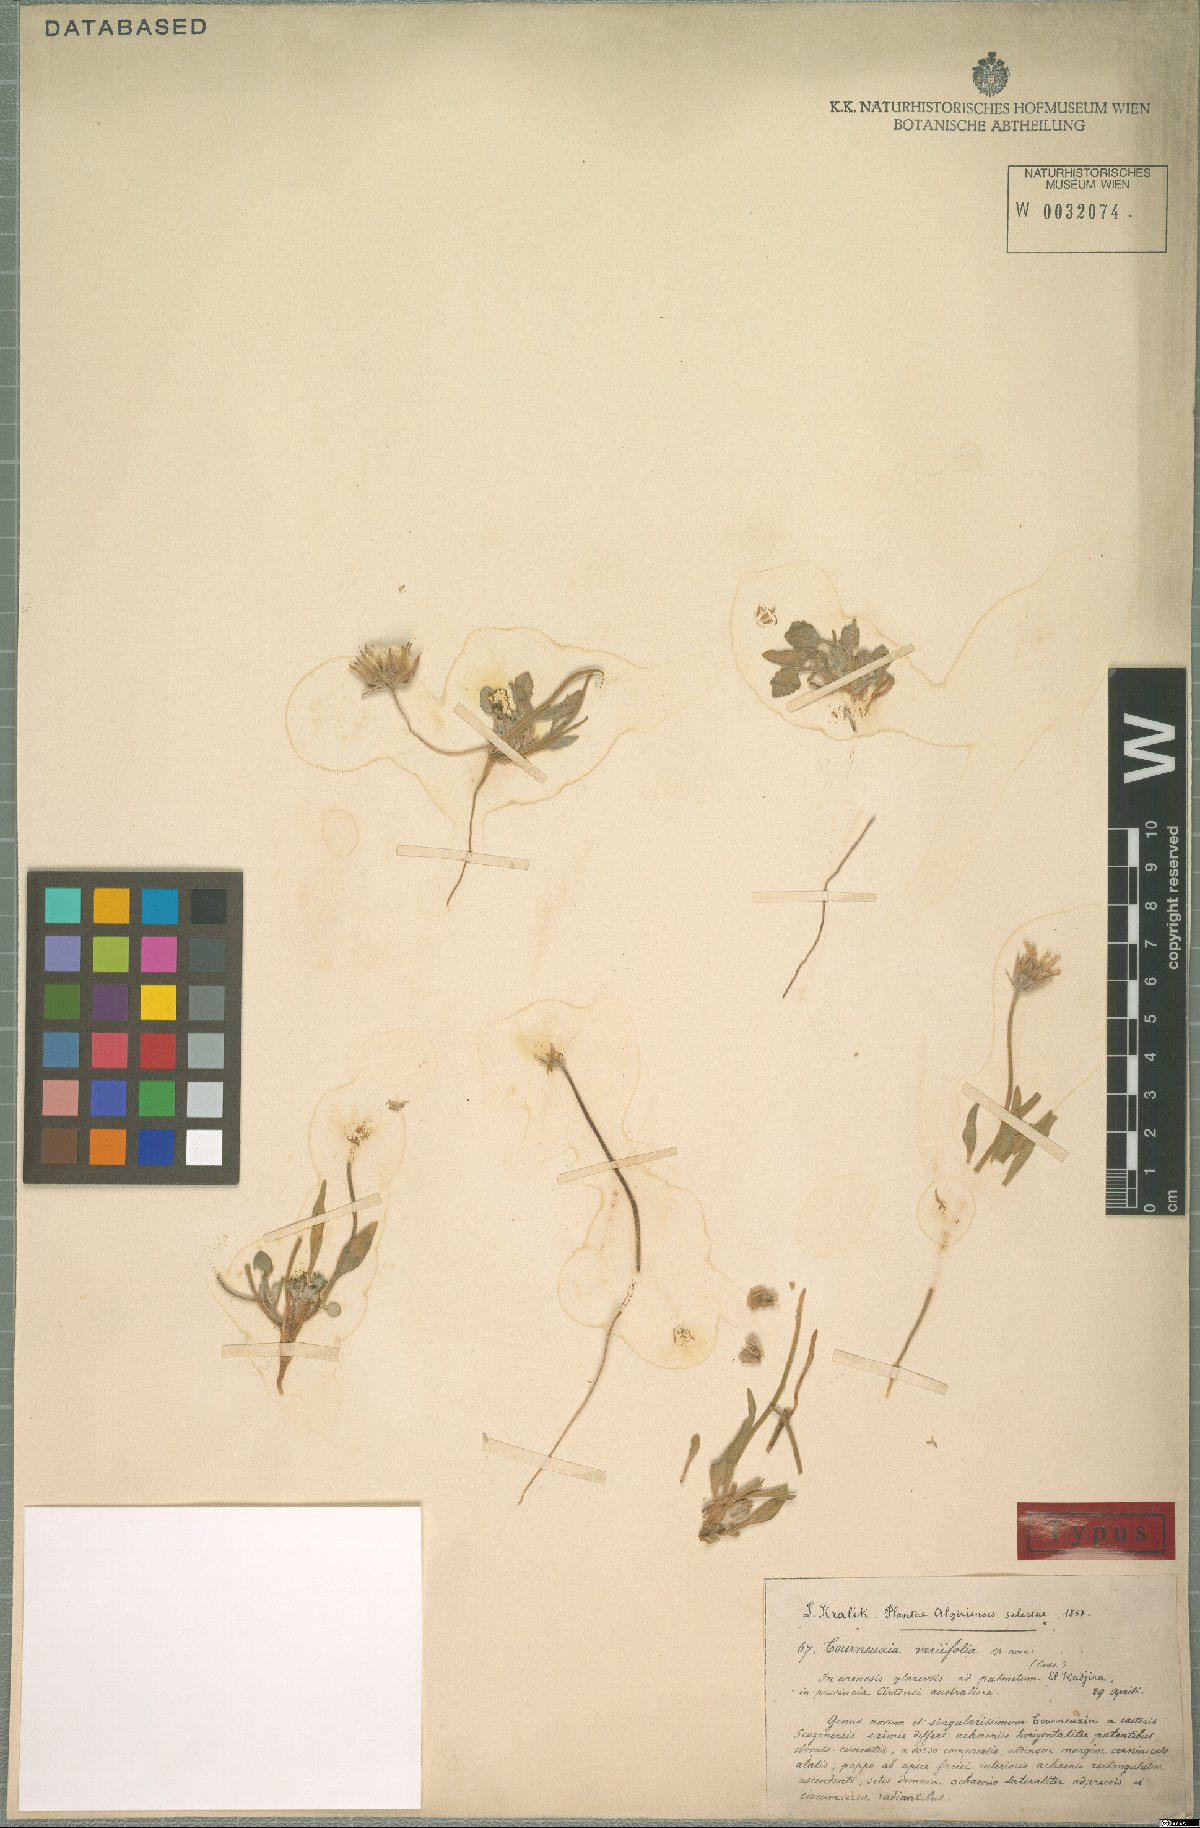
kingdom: Plantae
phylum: Tracheophyta
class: Magnoliopsida
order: Asterales
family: Asteraceae
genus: Tourneuxia
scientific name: Tourneuxia variifolia
